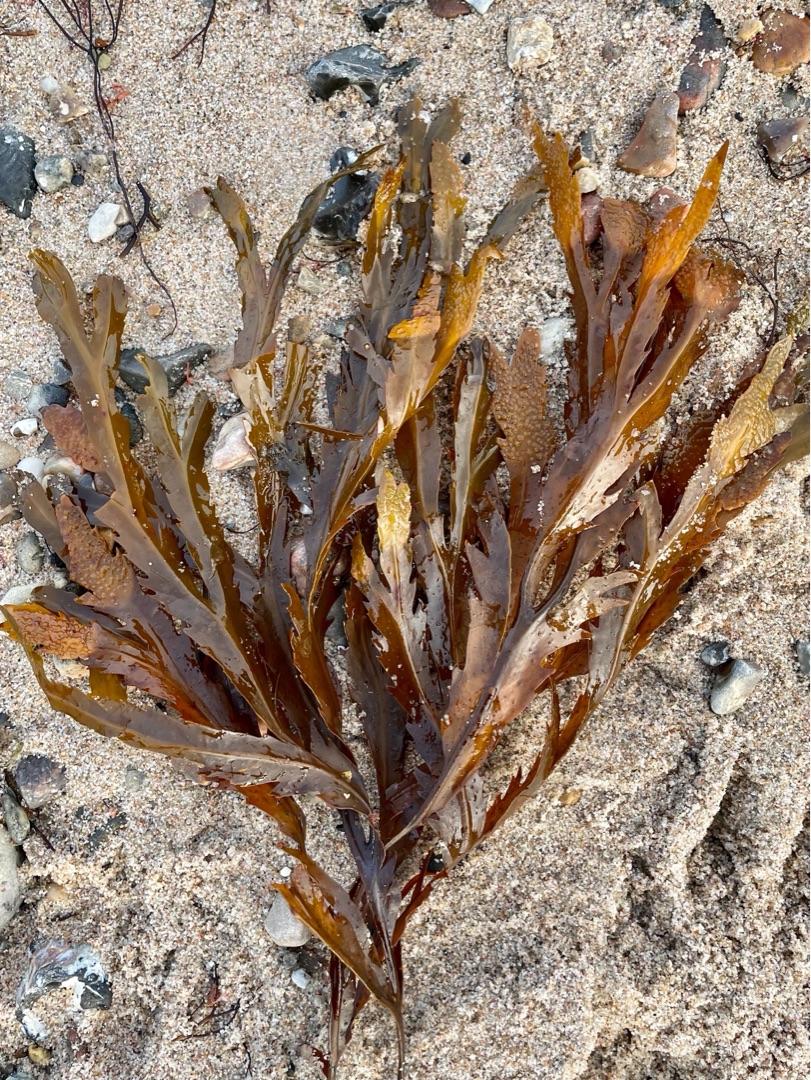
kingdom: Chromista
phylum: Ochrophyta
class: Phaeophyceae
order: Fucales
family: Fucaceae
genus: Fucus
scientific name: Fucus serratus
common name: Savtang
